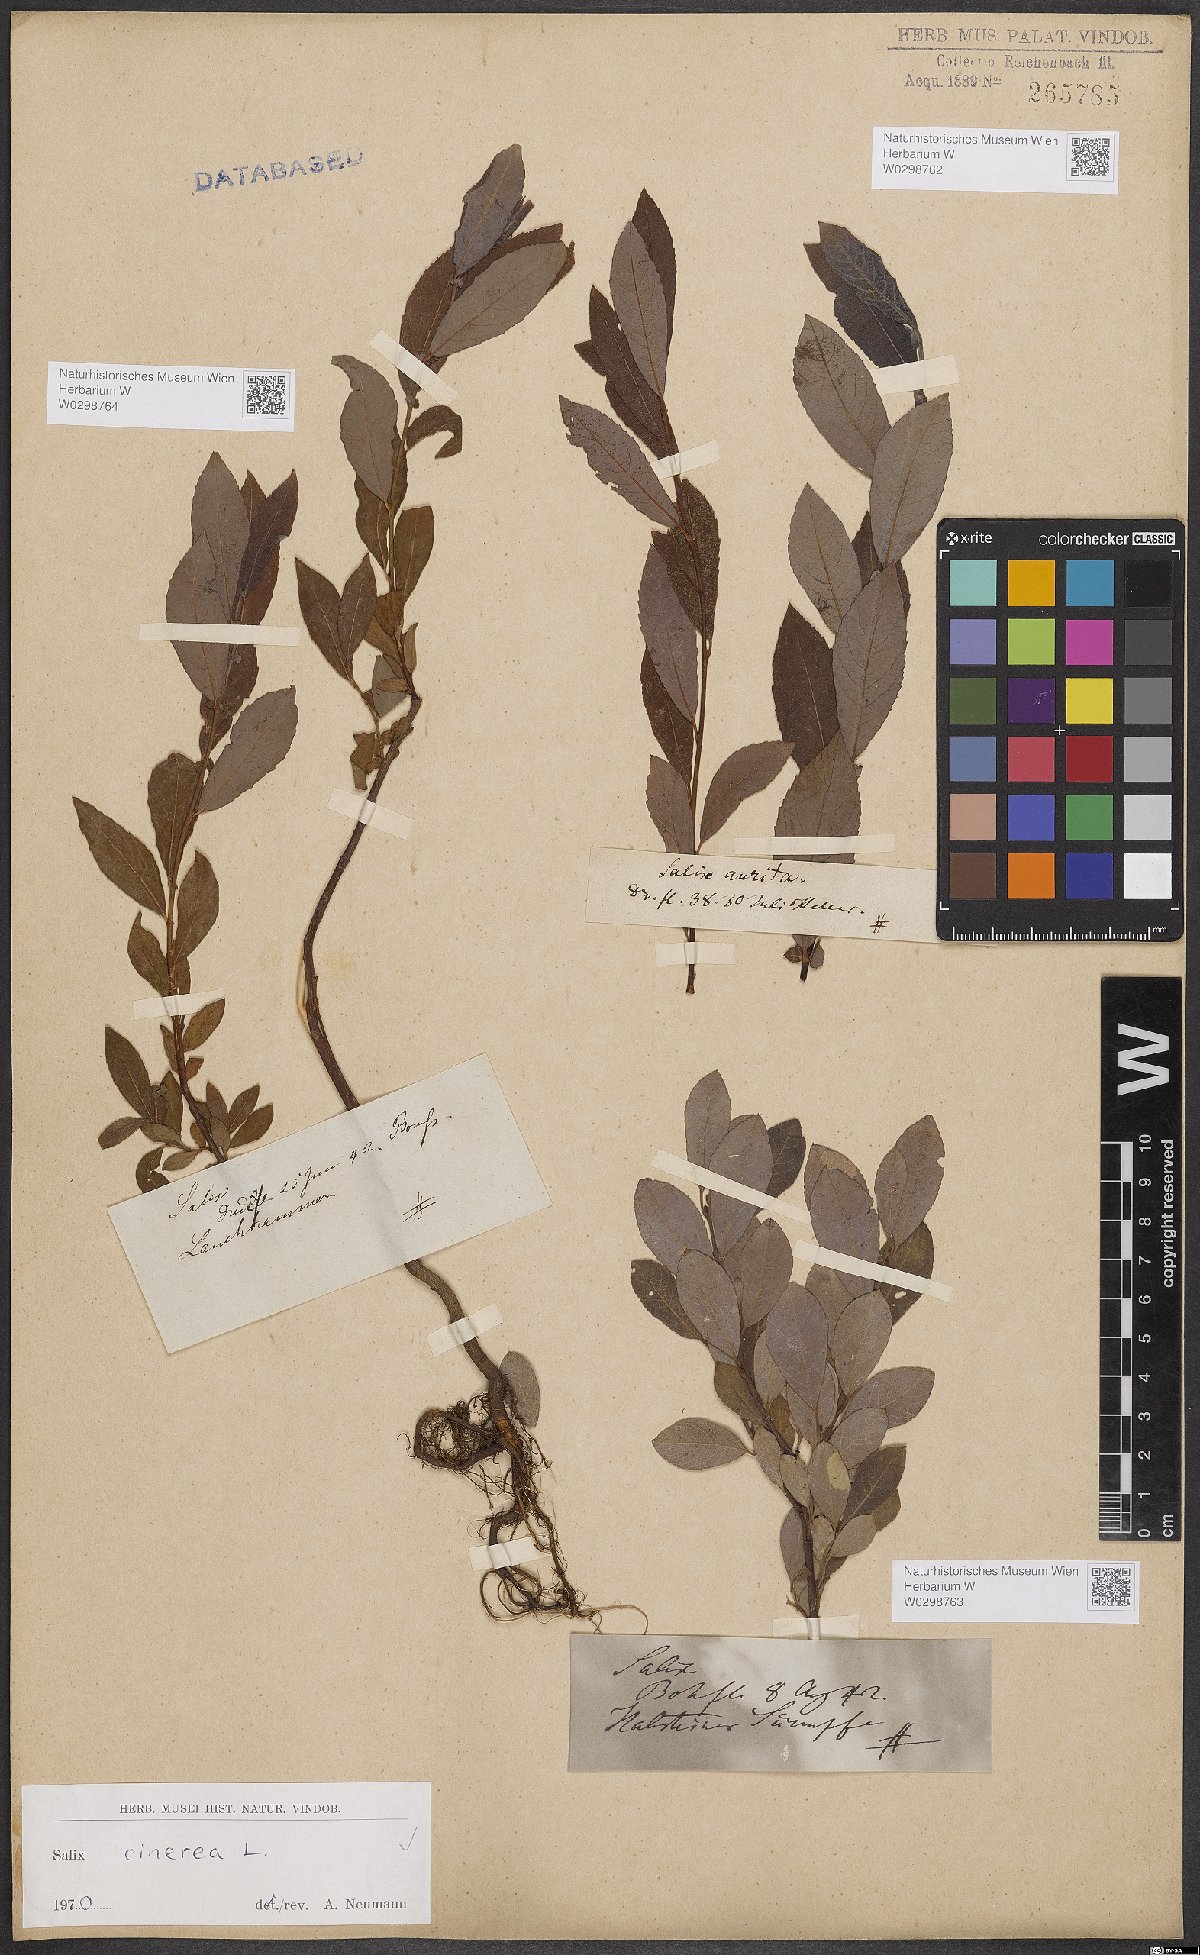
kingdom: Plantae
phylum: Tracheophyta
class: Magnoliopsida
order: Malpighiales
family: Salicaceae
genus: Salix
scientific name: Salix cinerea
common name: Common sallow
